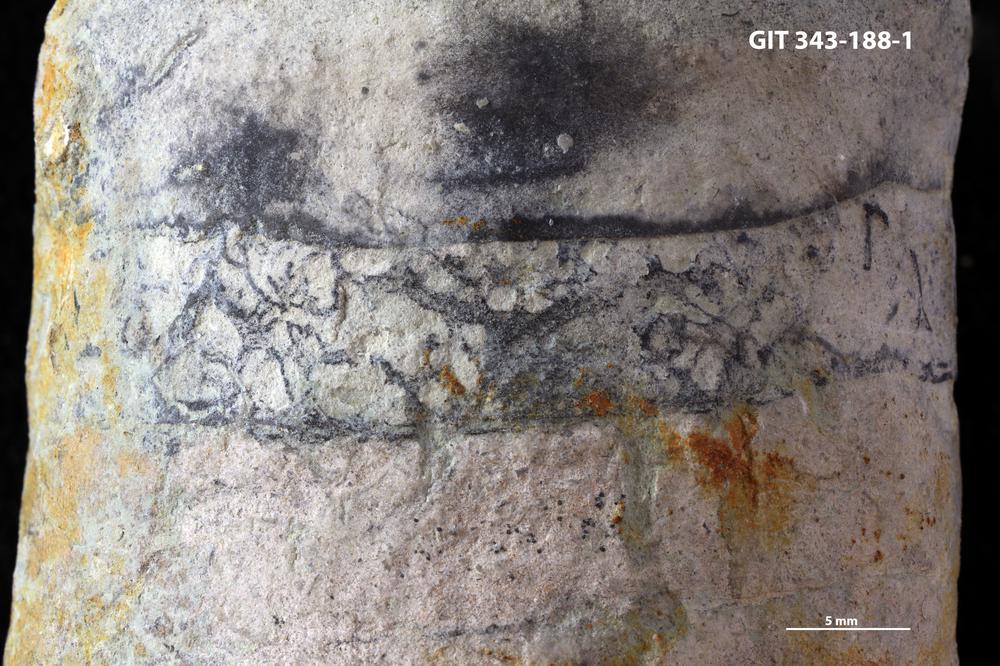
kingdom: Animalia
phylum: Annelida
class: Polychaeta
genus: Arachnostega
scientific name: Arachnostega gastrochaenae
